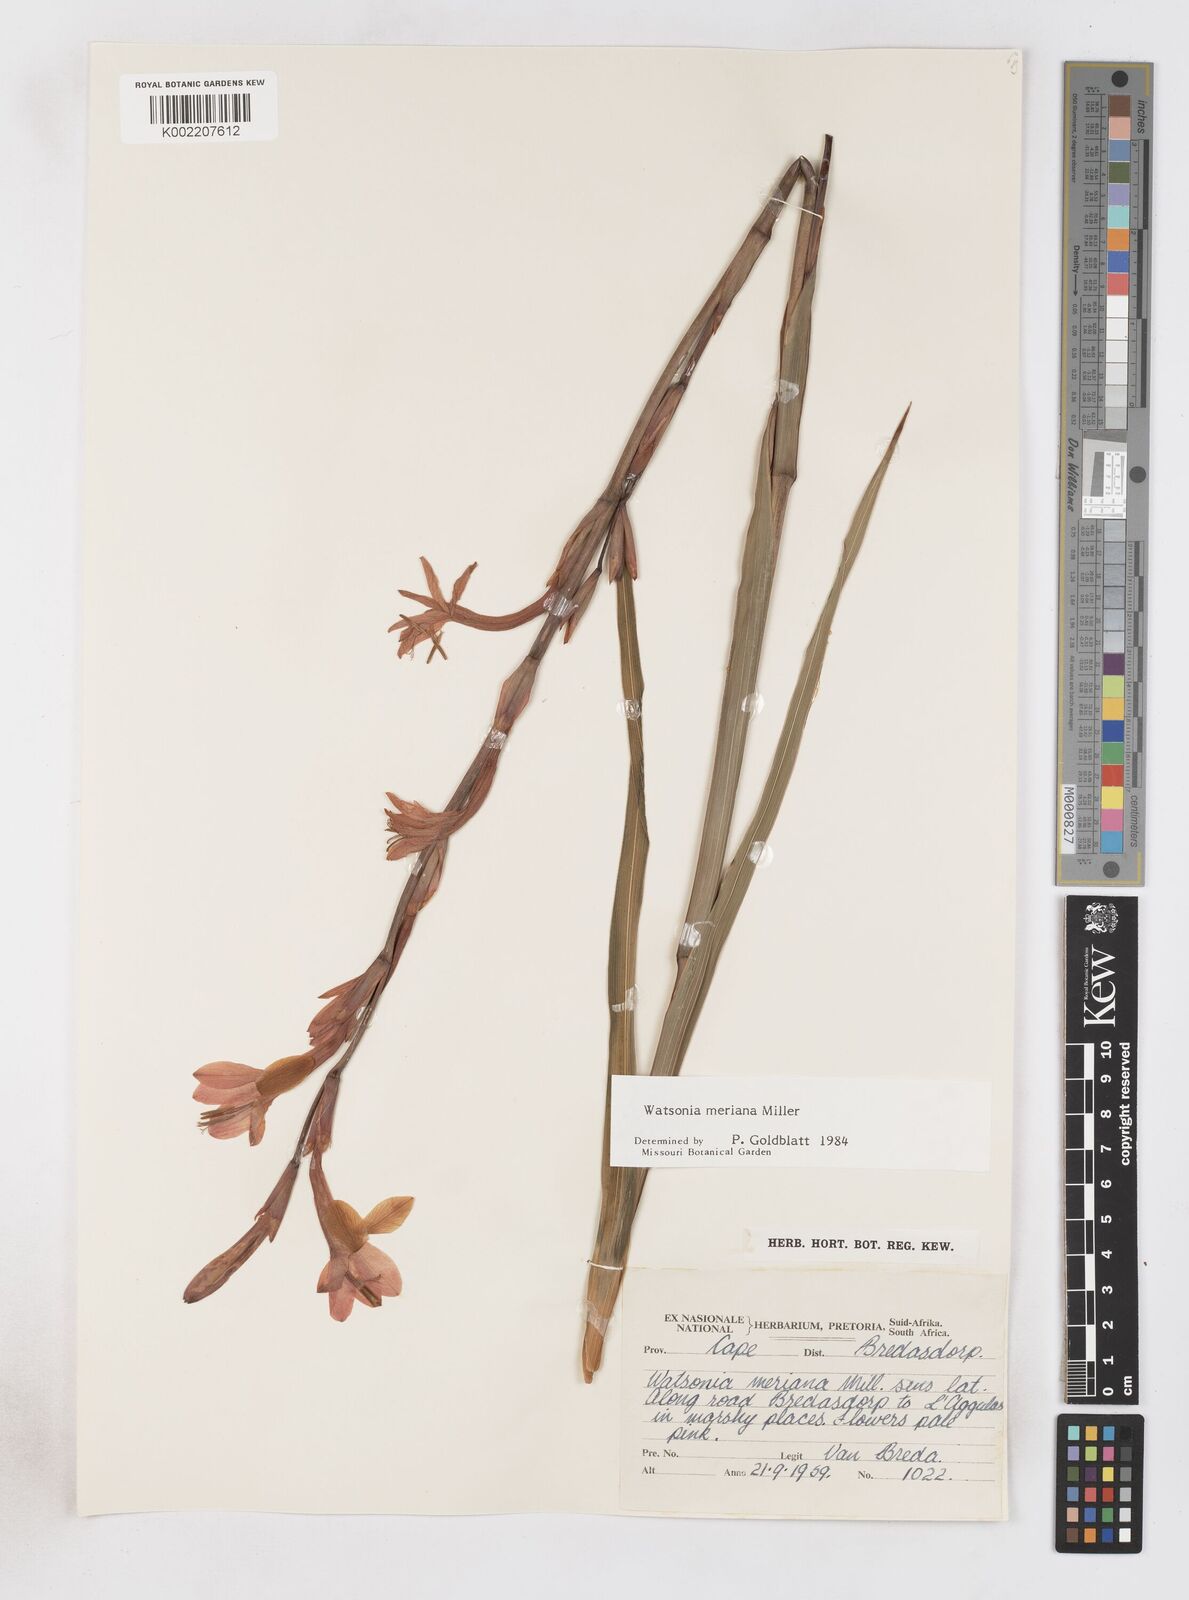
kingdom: Plantae
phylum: Tracheophyta
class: Liliopsida
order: Asparagales
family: Iridaceae
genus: Watsonia
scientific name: Watsonia meriana
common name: Bulbil bugle-lily
